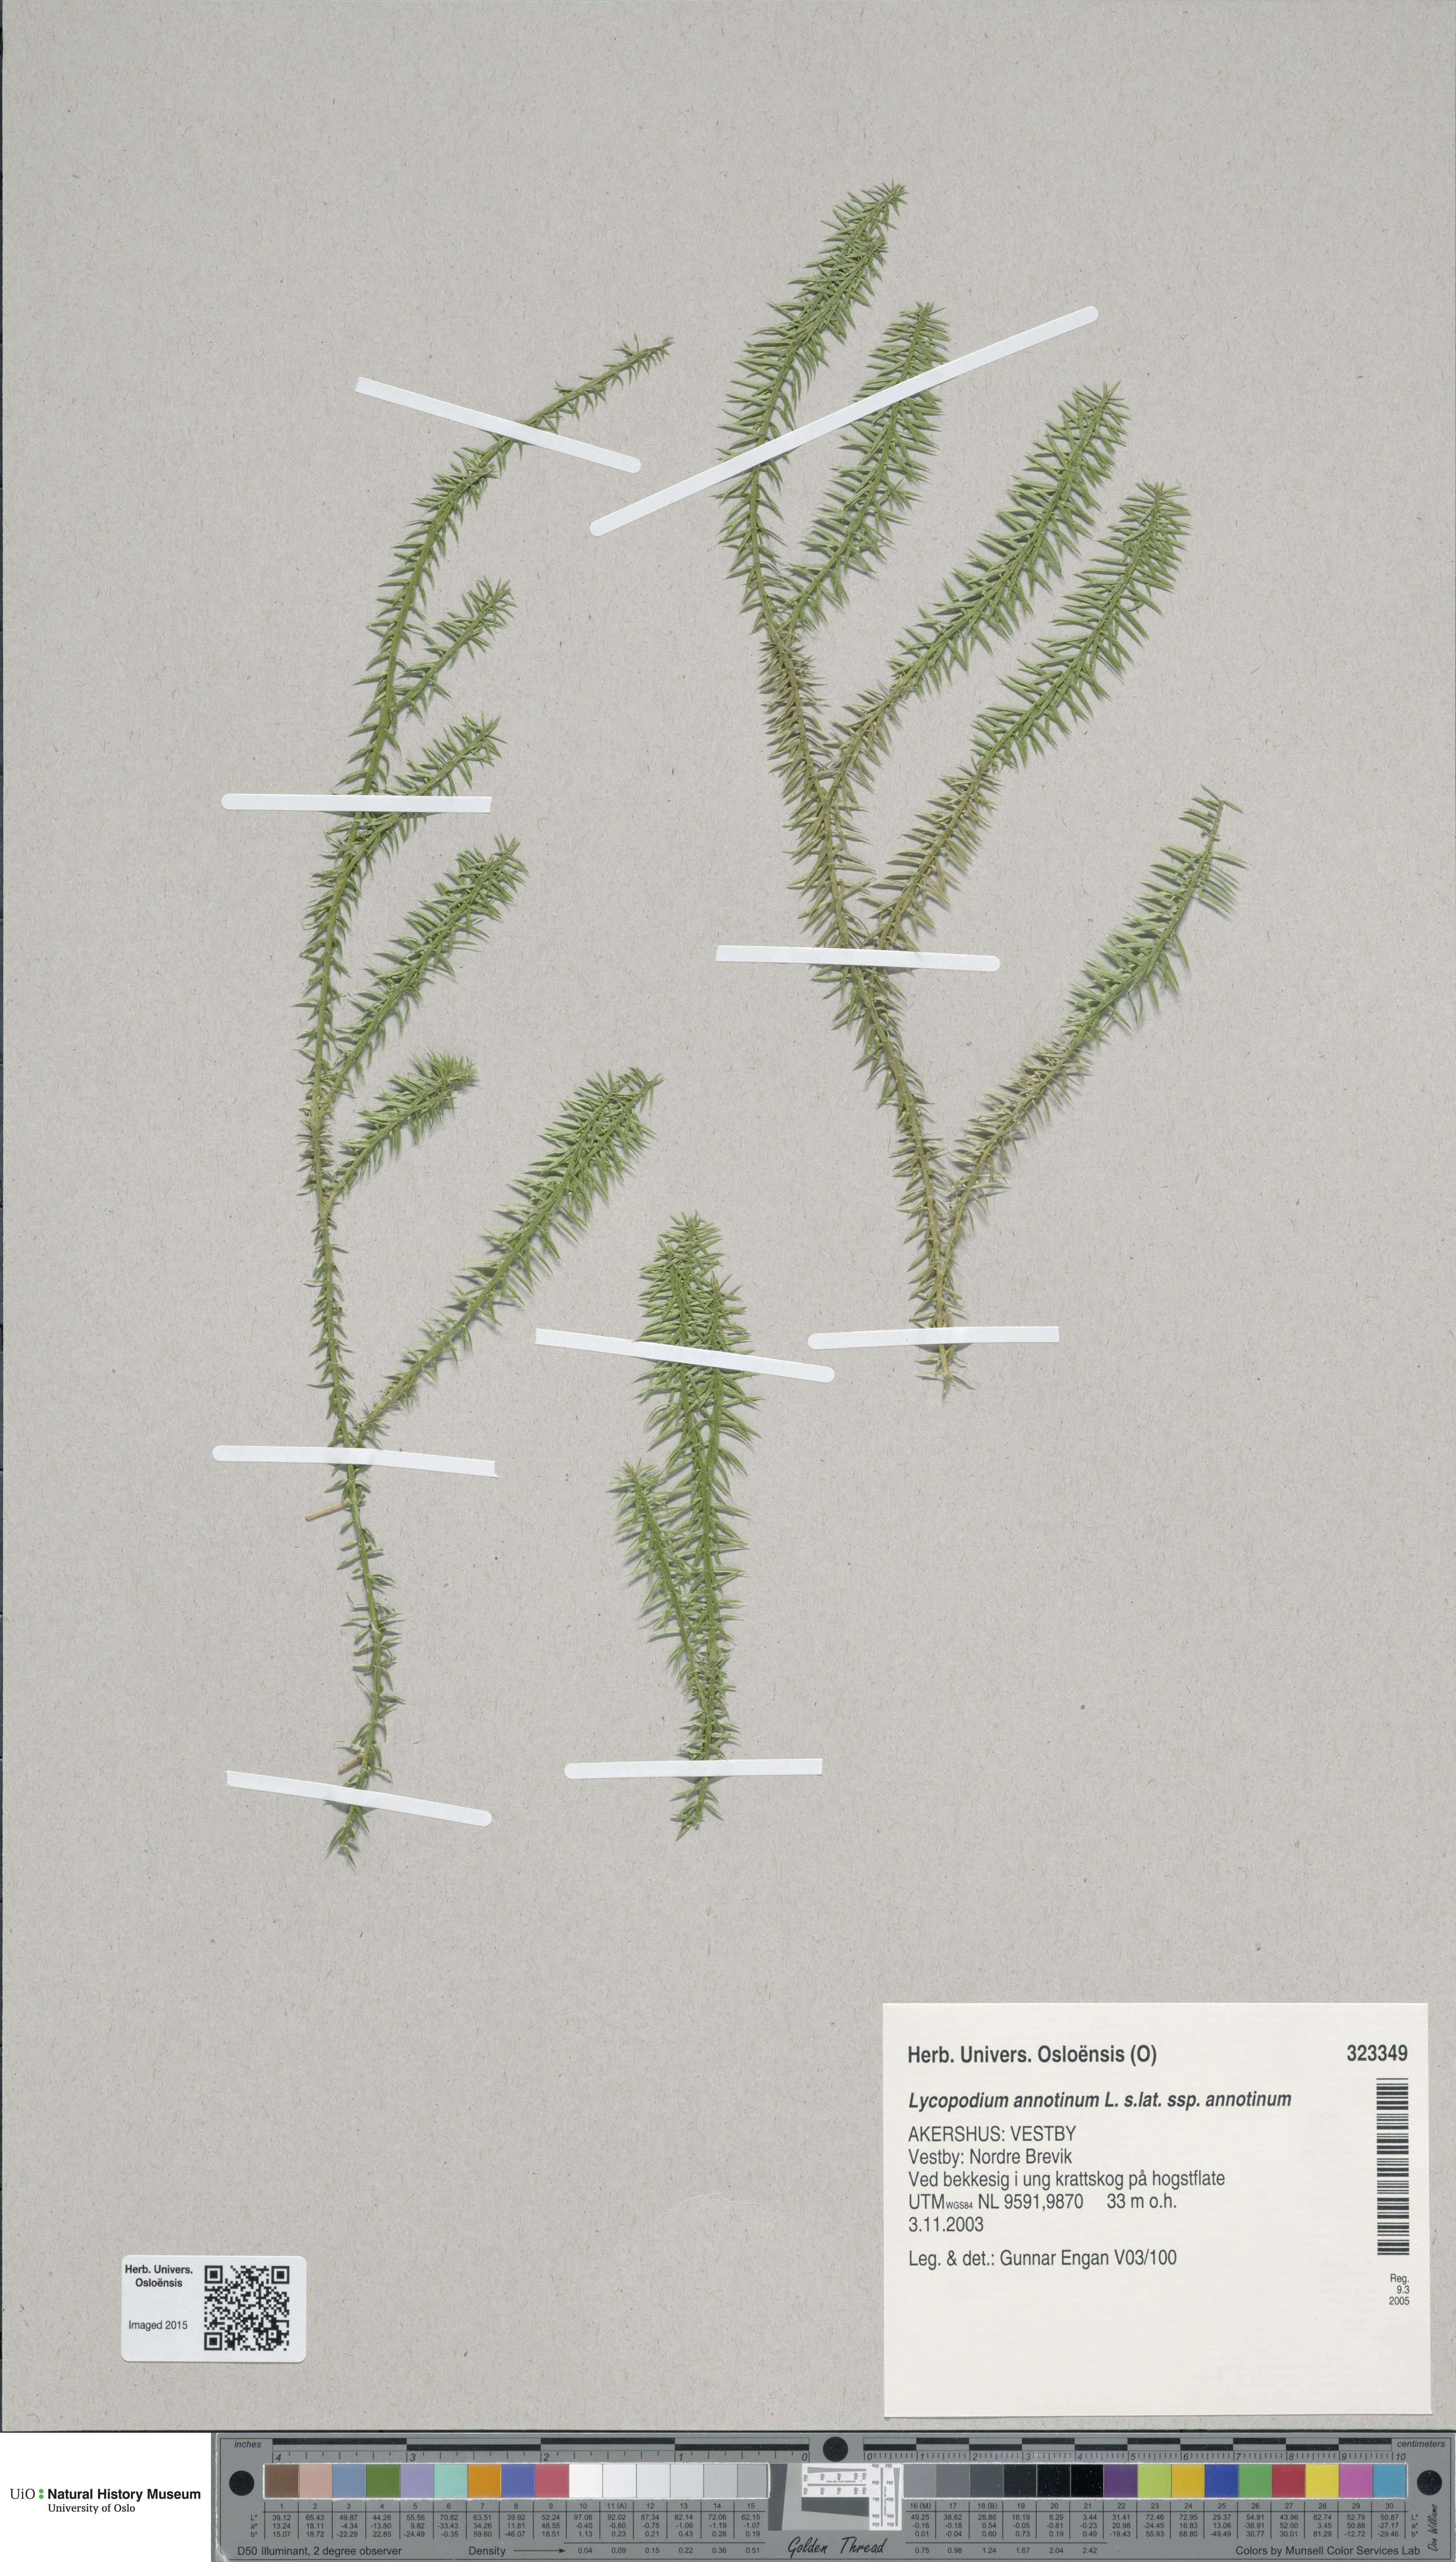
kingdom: Plantae
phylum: Tracheophyta
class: Lycopodiopsida
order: Lycopodiales
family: Lycopodiaceae
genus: Spinulum
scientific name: Spinulum annotinum
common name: Interrupted club-moss
